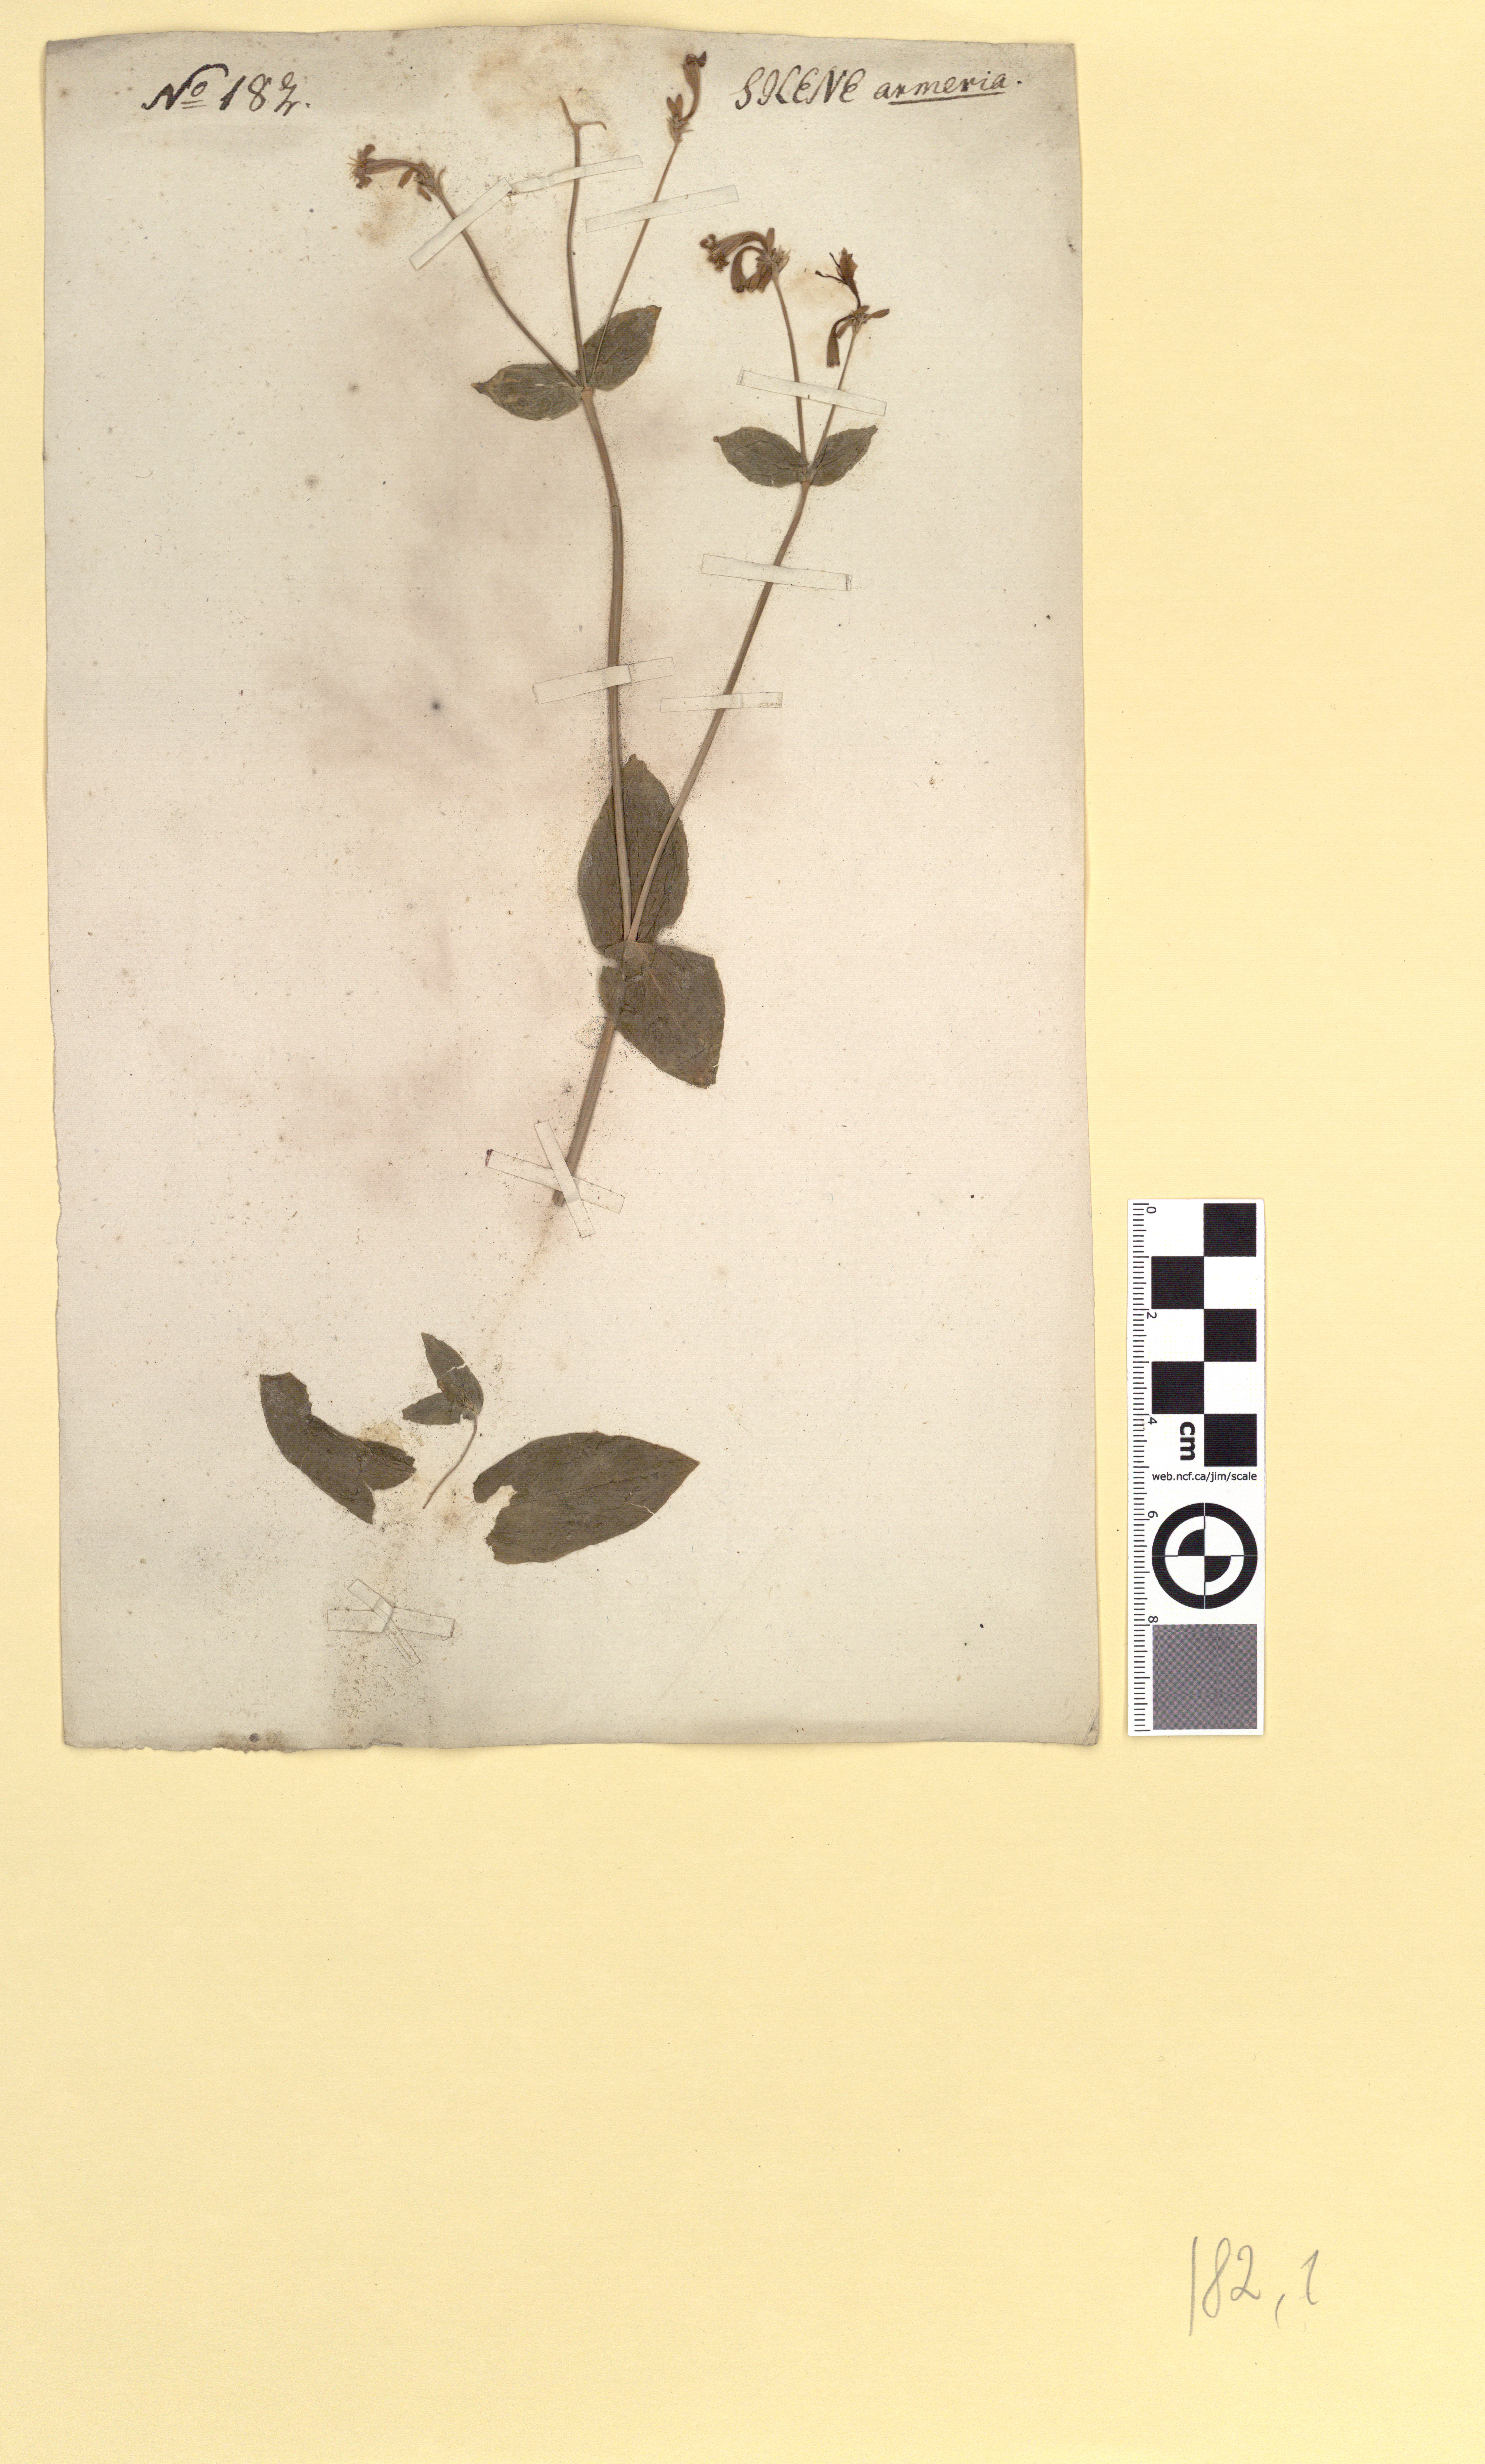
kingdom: Plantae
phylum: Tracheophyta
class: Magnoliopsida
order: Caryophyllales
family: Caryophyllaceae
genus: Atocion
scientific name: Atocion armeria
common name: Sweet william catchfly
